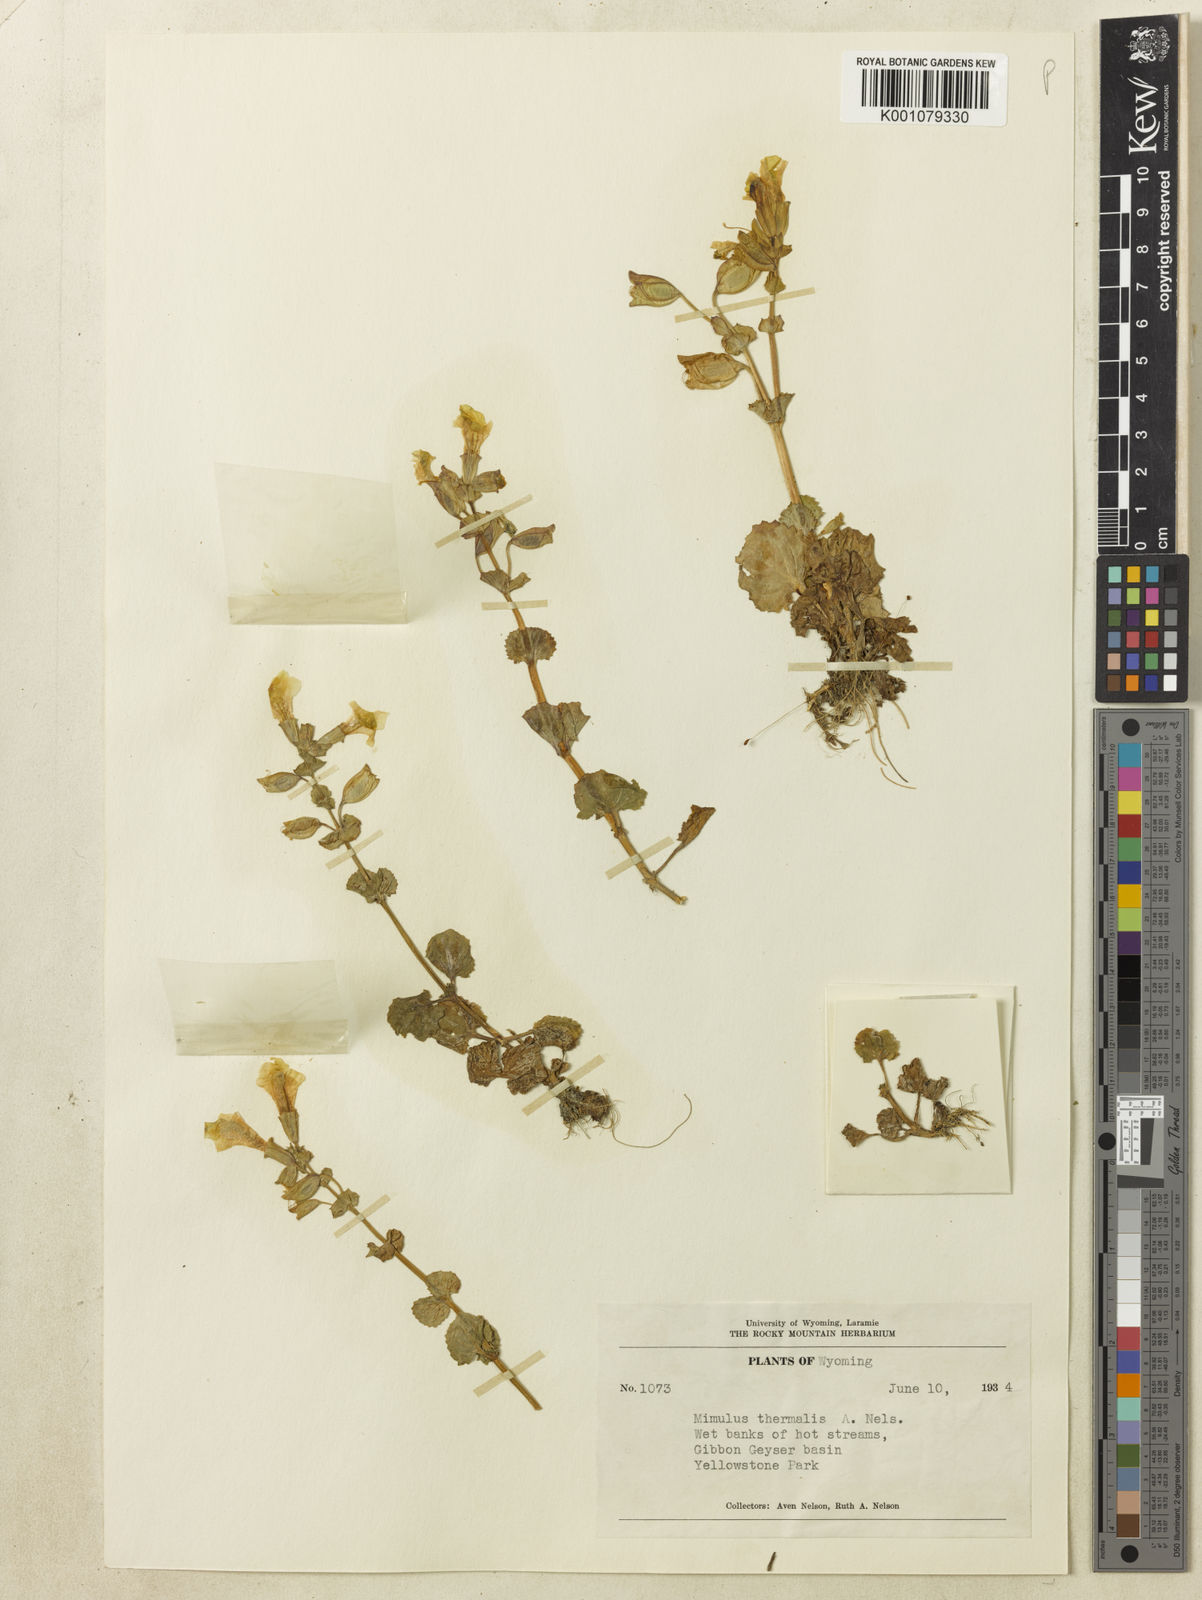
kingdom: Plantae
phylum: Tracheophyta
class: Magnoliopsida
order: Lamiales
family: Phrymaceae
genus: Erythranthe
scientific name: Erythranthe thermalis
